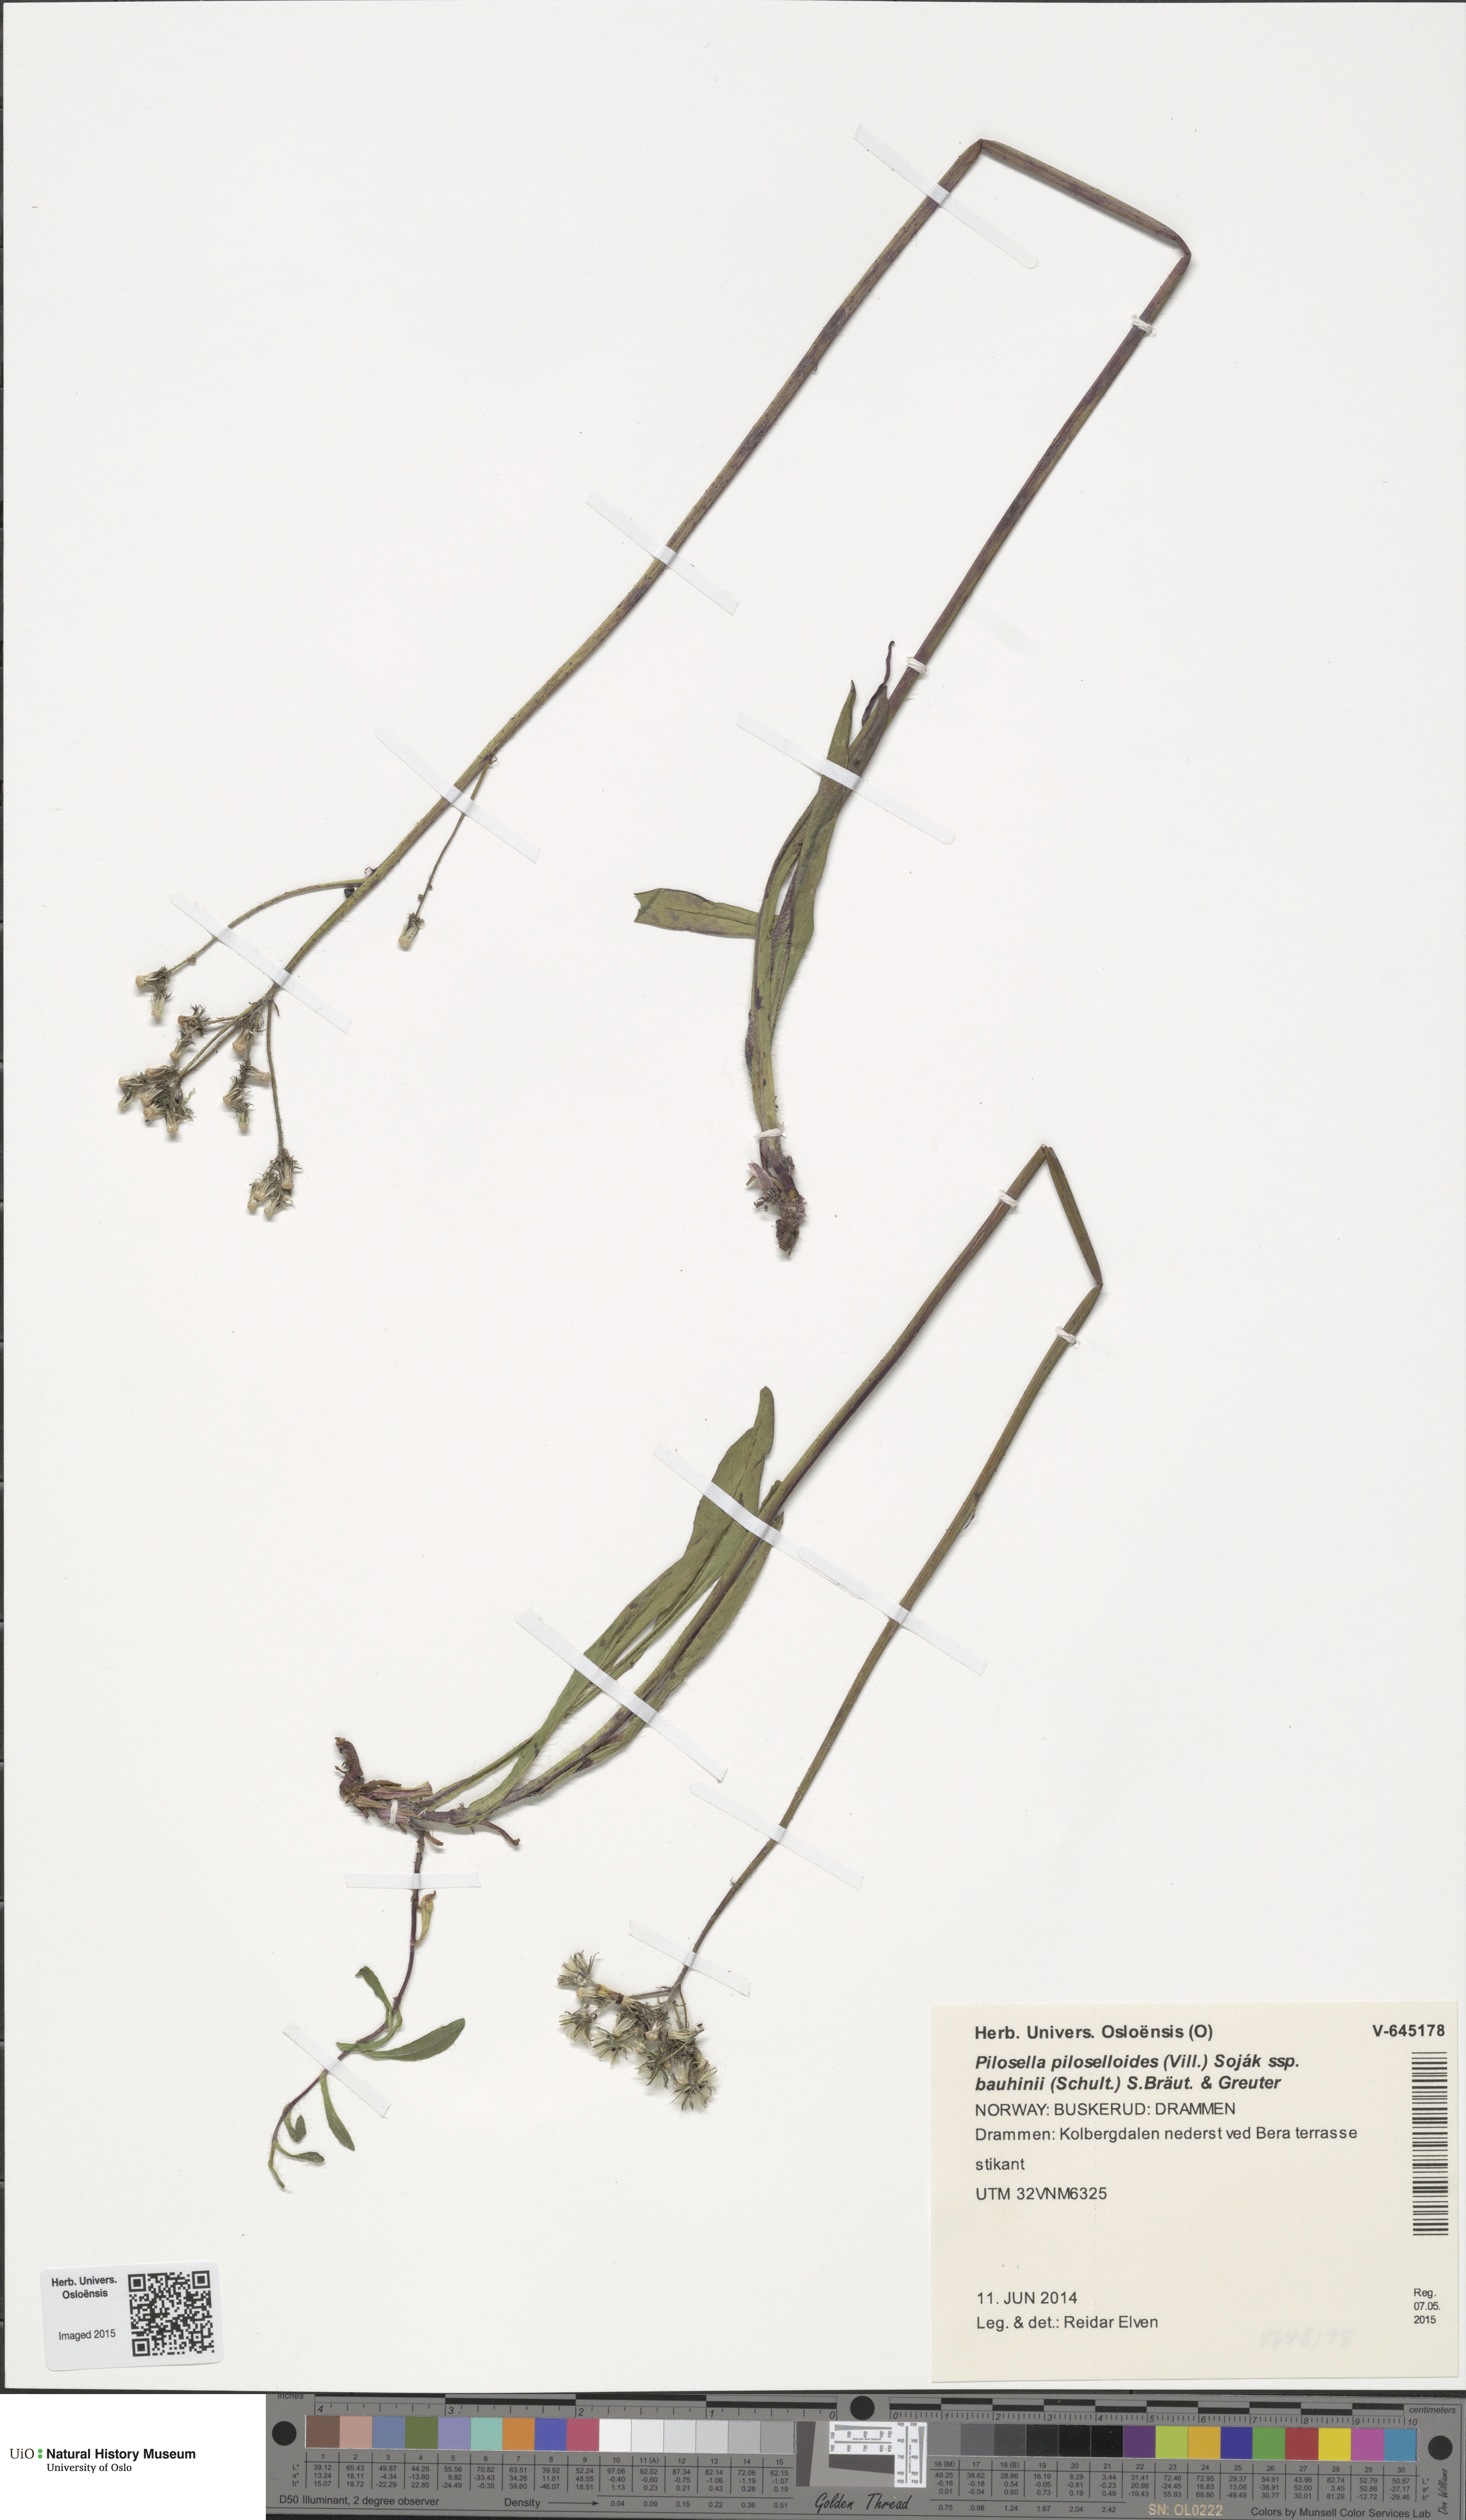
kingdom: Plantae
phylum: Tracheophyta
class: Magnoliopsida
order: Asterales
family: Asteraceae
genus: Pilosella
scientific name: Pilosella bauhini
